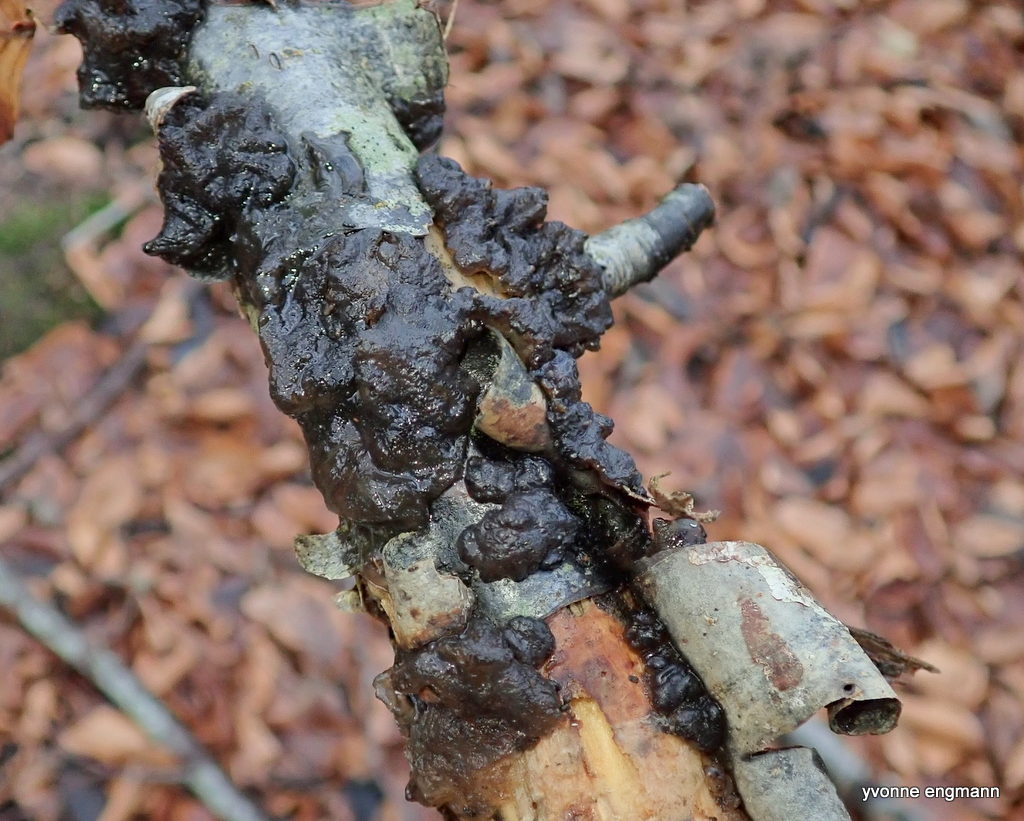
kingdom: Fungi
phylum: Basidiomycota
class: Agaricomycetes
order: Auriculariales
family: Auriculariaceae
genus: Exidia
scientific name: Exidia nigricans
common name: almindelig bævretop
